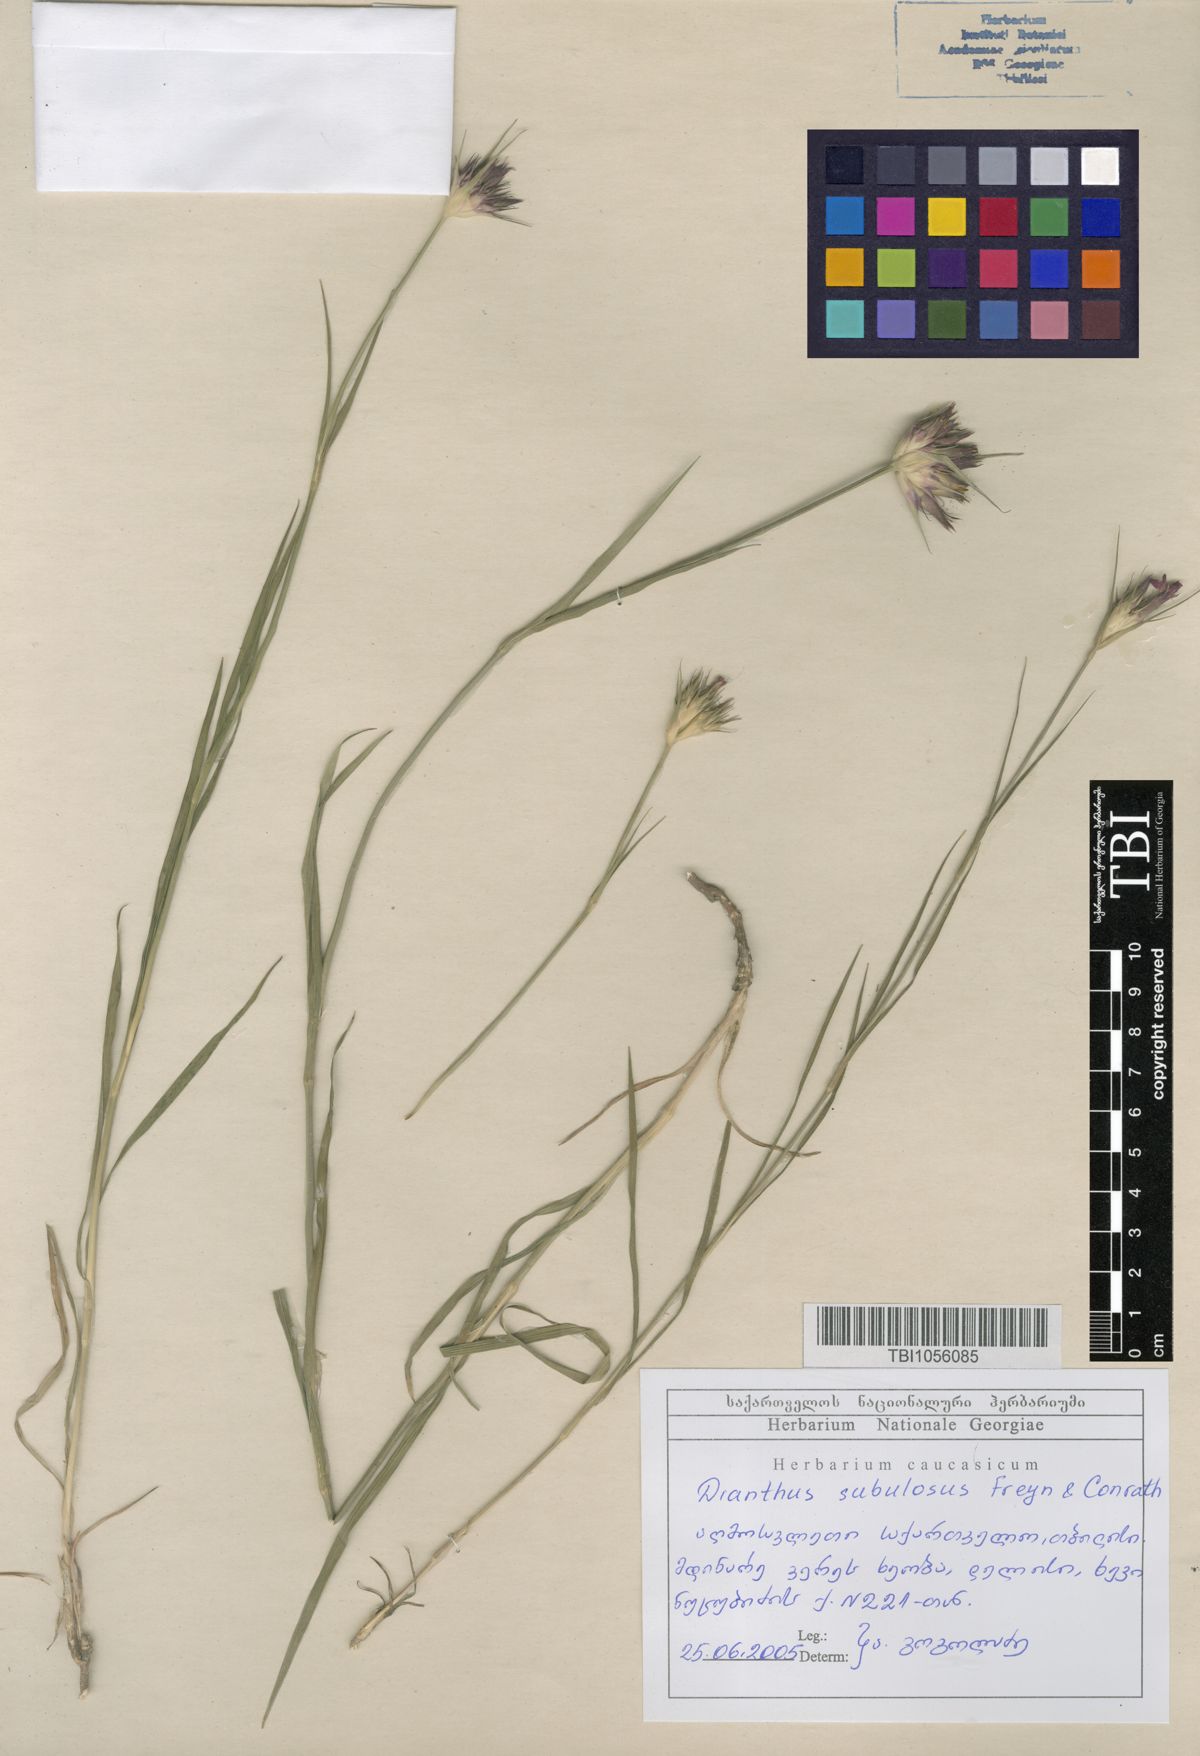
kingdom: Plantae
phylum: Tracheophyta
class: Magnoliopsida
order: Caryophyllales
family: Caryophyllaceae
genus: Dianthus
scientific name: Dianthus subulosus
